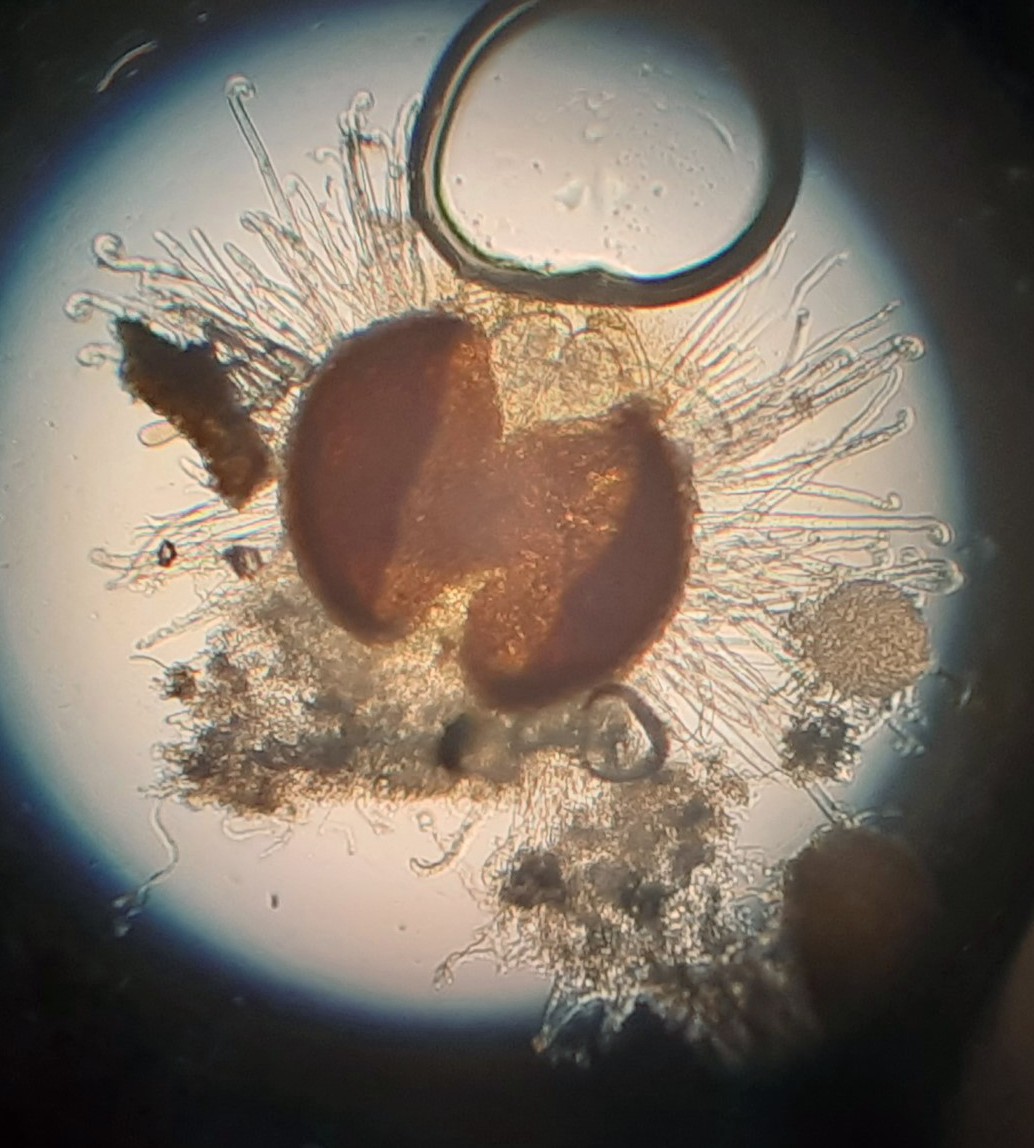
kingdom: Fungi
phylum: Ascomycota
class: Leotiomycetes
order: Helotiales
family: Erysiphaceae
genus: Sawadaea
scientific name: Sawadaea tulasnei
